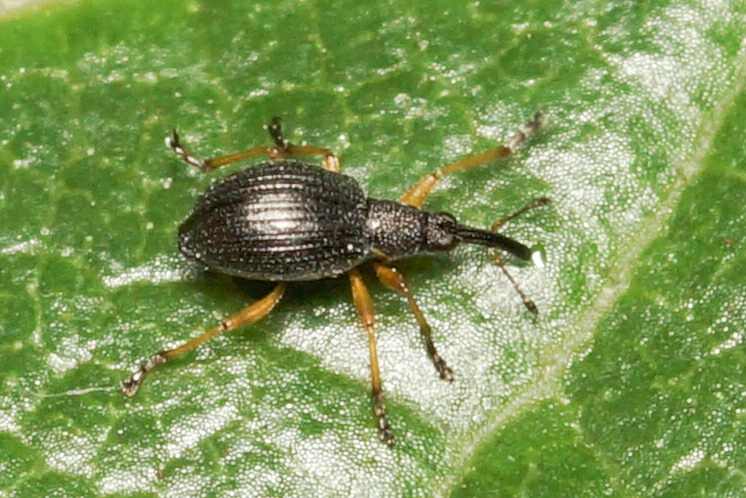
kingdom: Animalia
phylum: Arthropoda
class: Insecta
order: Coleoptera
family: Apionidae
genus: Protapion
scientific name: Protapion fulvipes
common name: Hvidkløversnudebille
